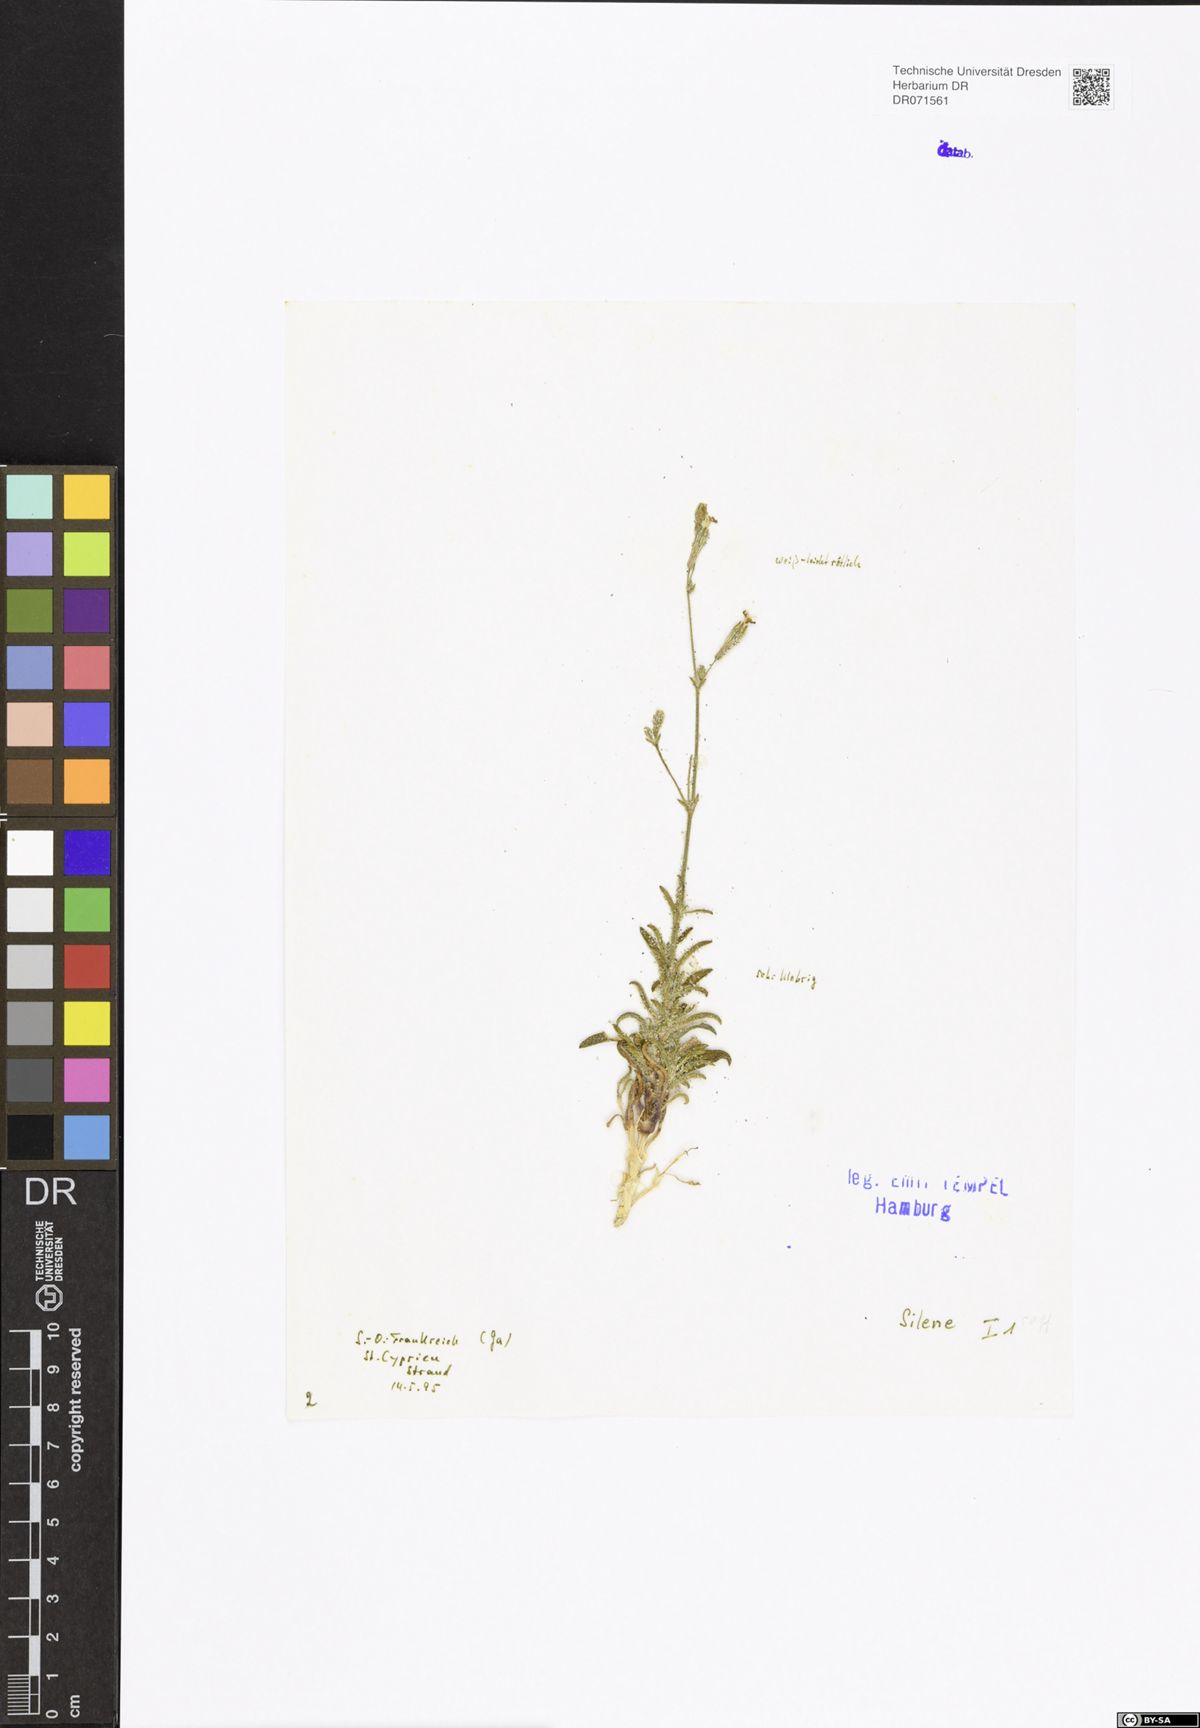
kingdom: Plantae
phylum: Tracheophyta
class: Magnoliopsida
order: Caryophyllales
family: Caryophyllaceae
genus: Silene
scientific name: Silene
